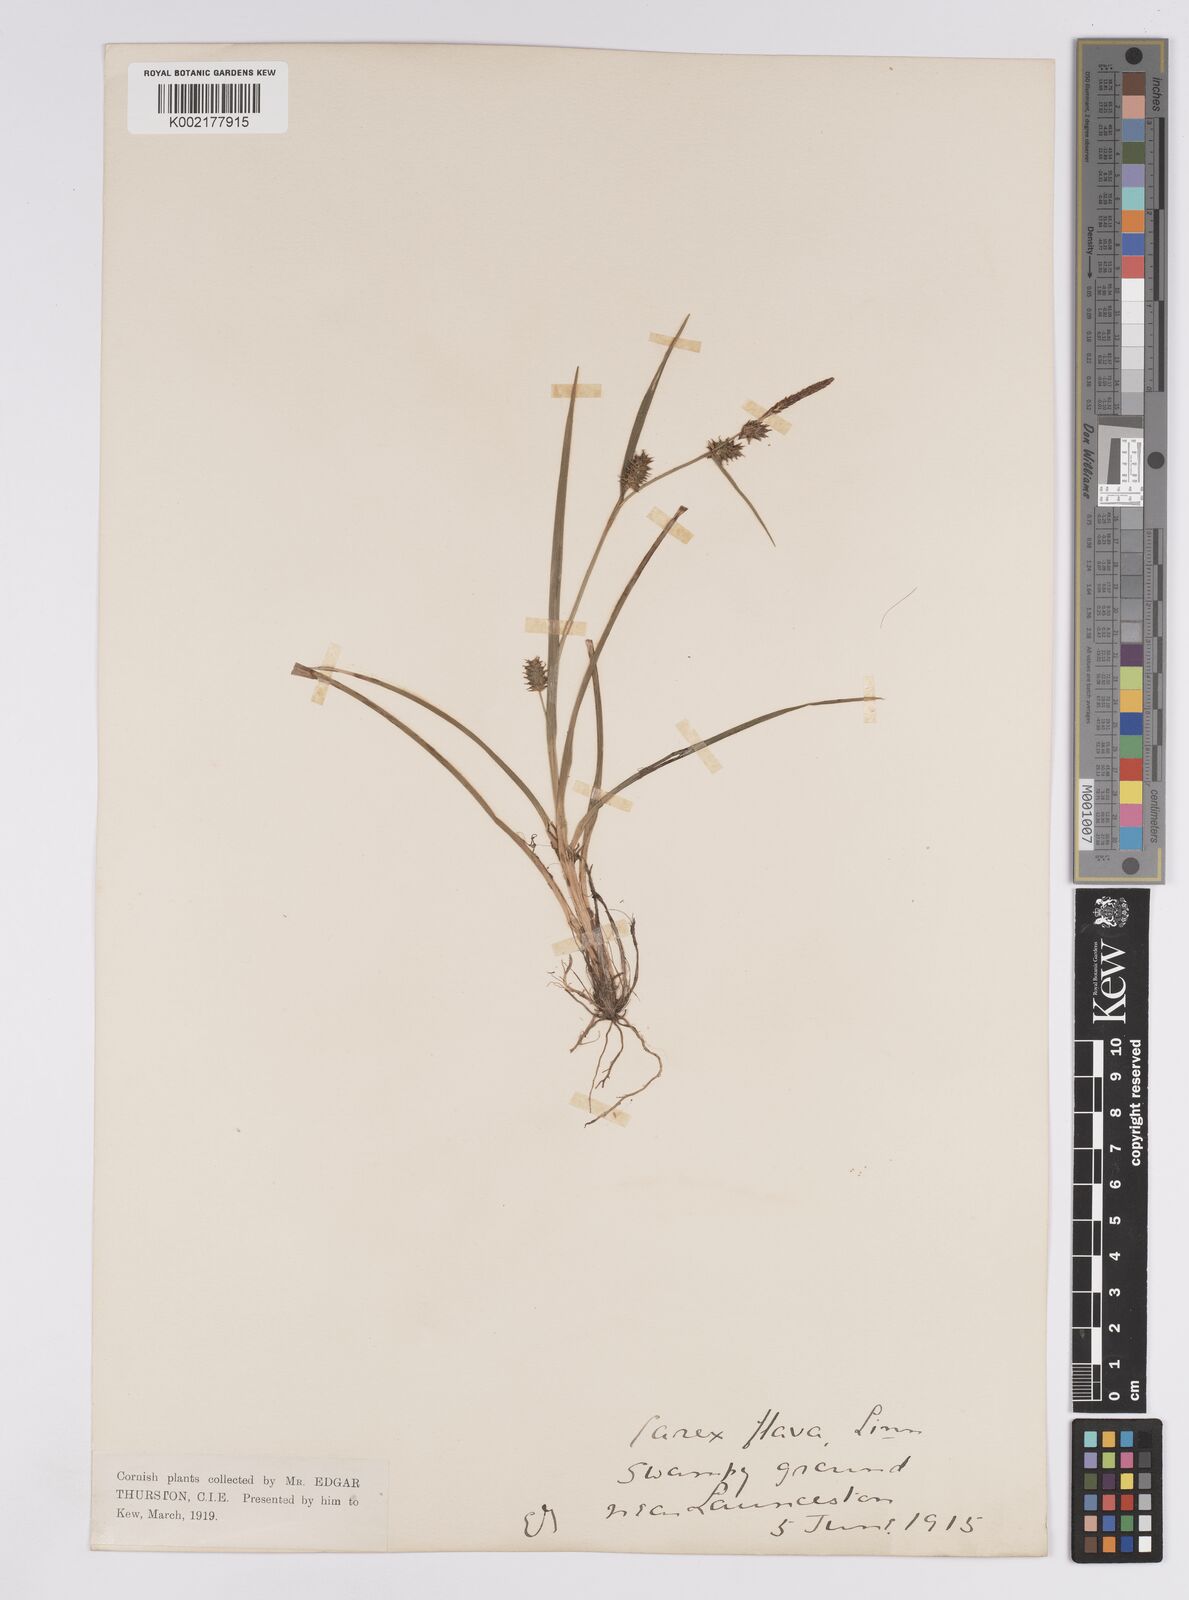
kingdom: Plantae
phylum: Tracheophyta
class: Liliopsida
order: Poales
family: Cyperaceae
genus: Carex
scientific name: Carex demissa
